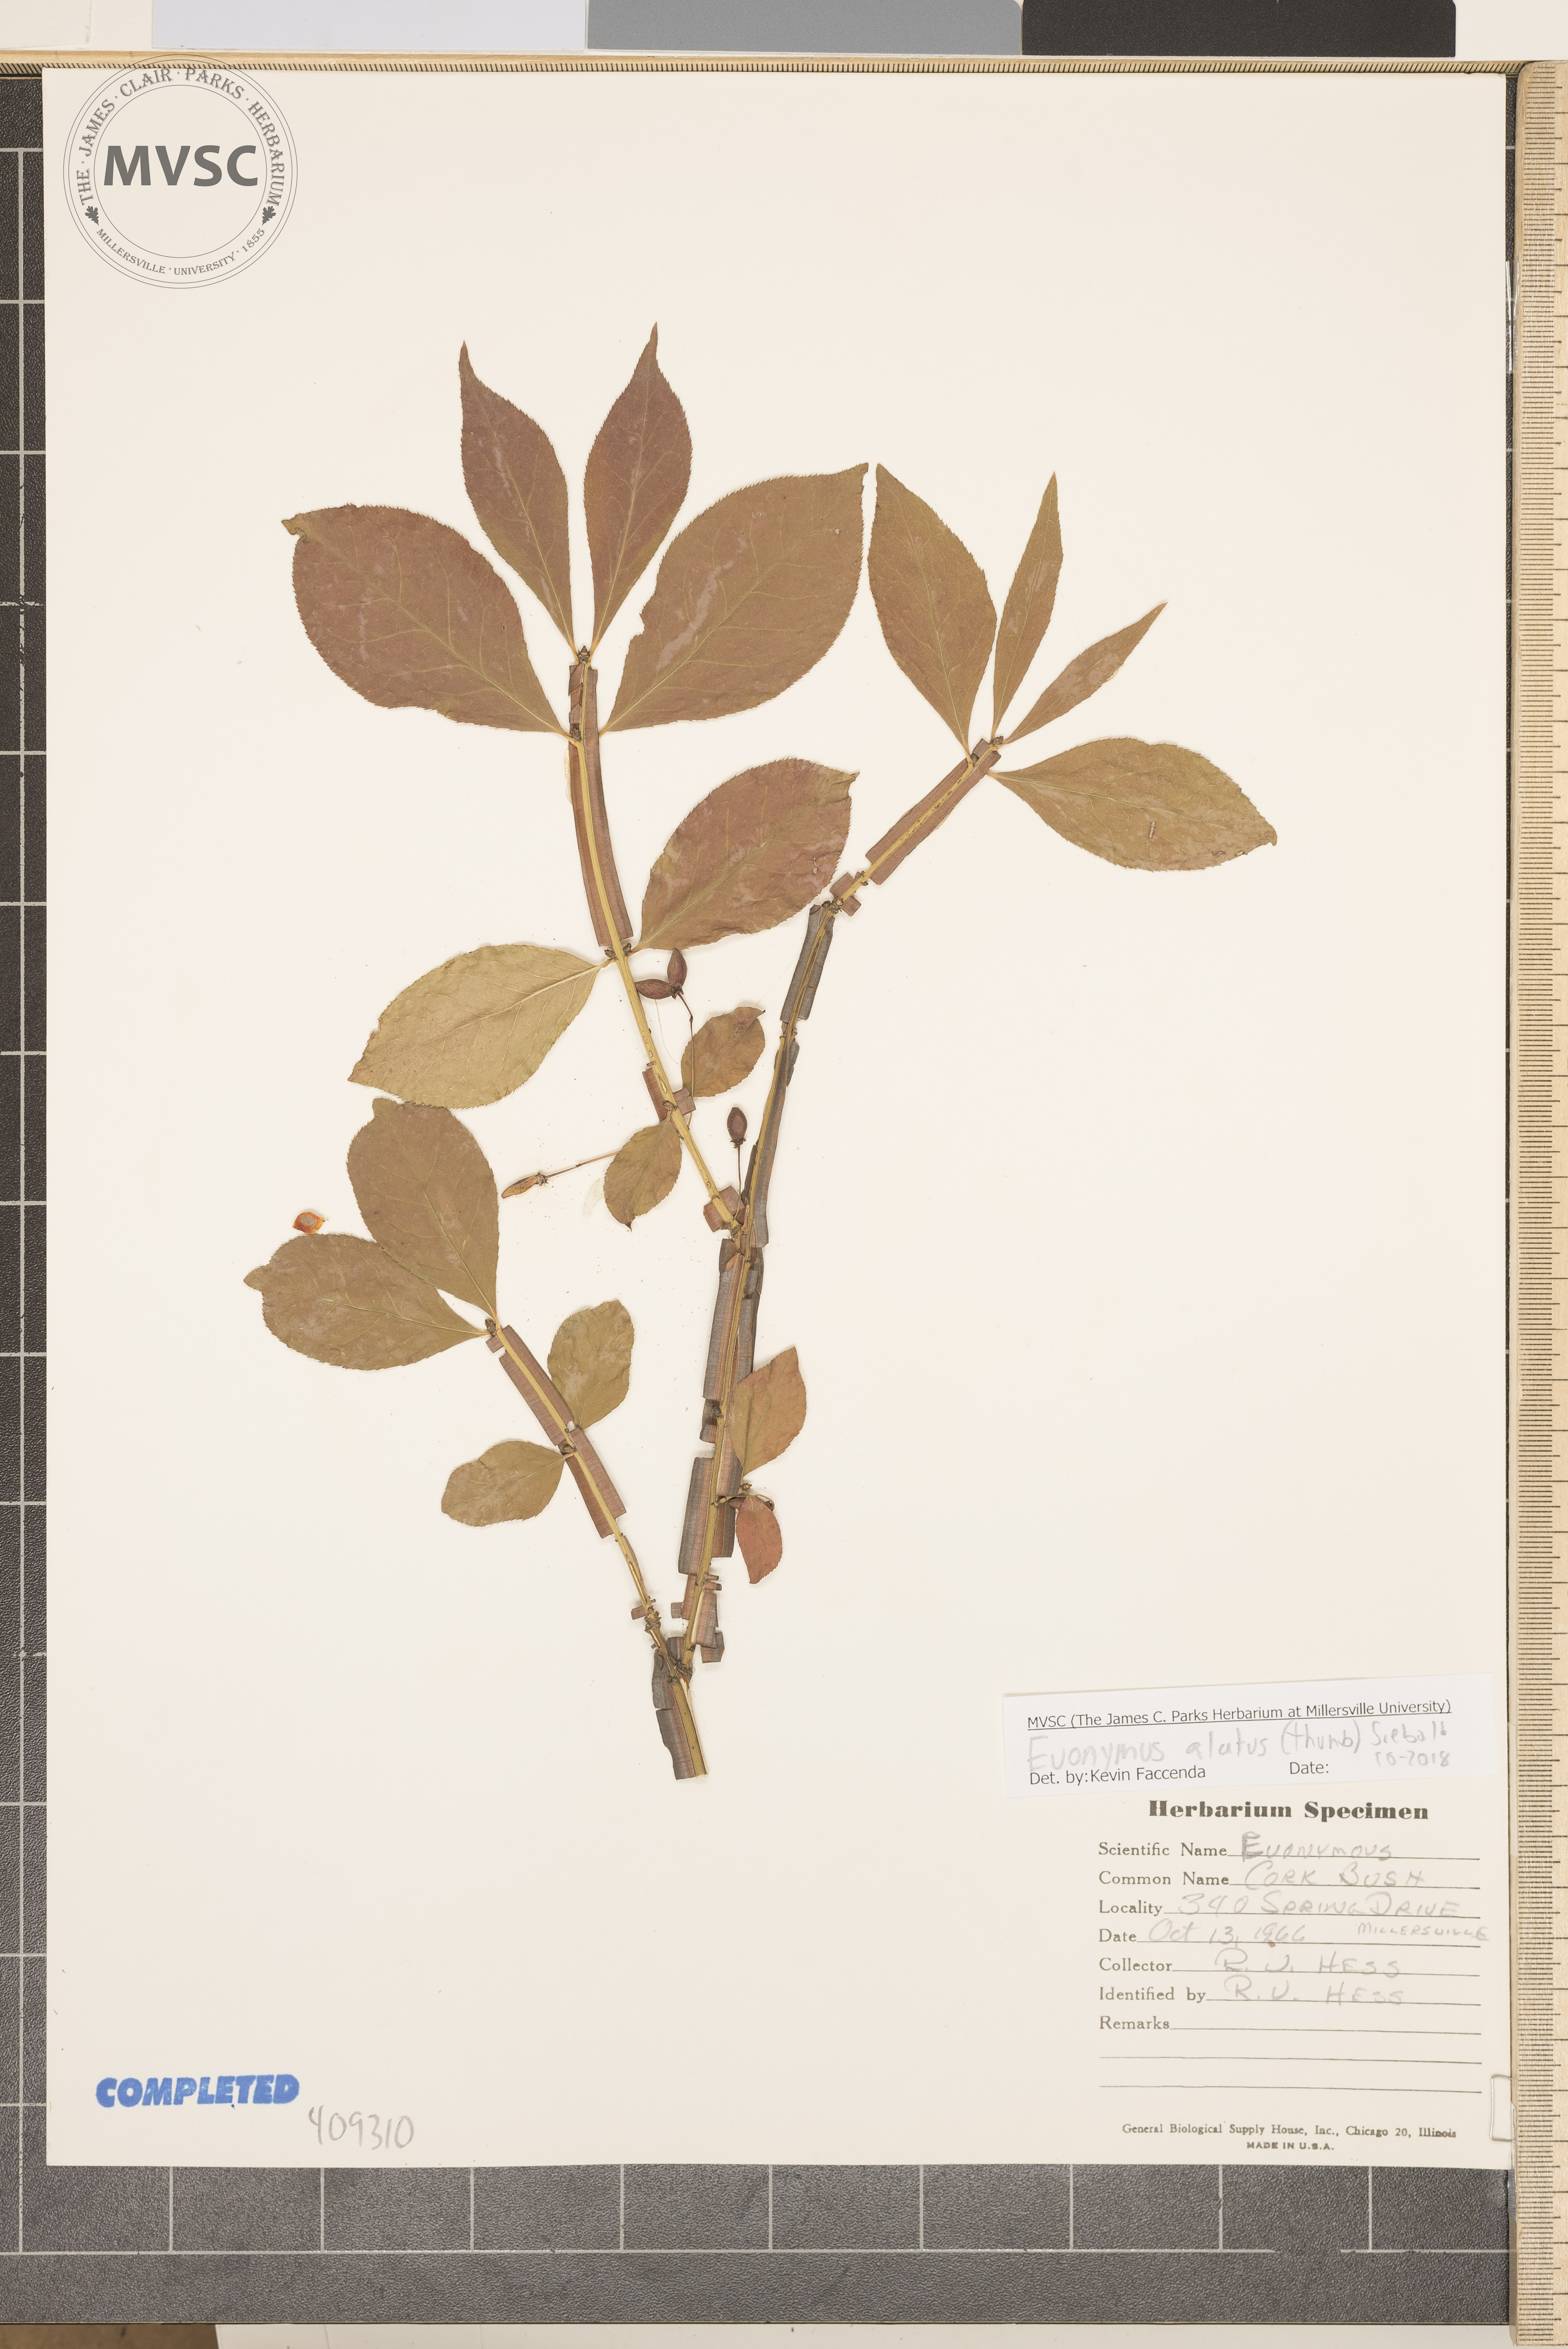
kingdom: Plantae
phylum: Tracheophyta
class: Magnoliopsida
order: Celastrales
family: Celastraceae
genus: Euonymus
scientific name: Euonymus alatus
